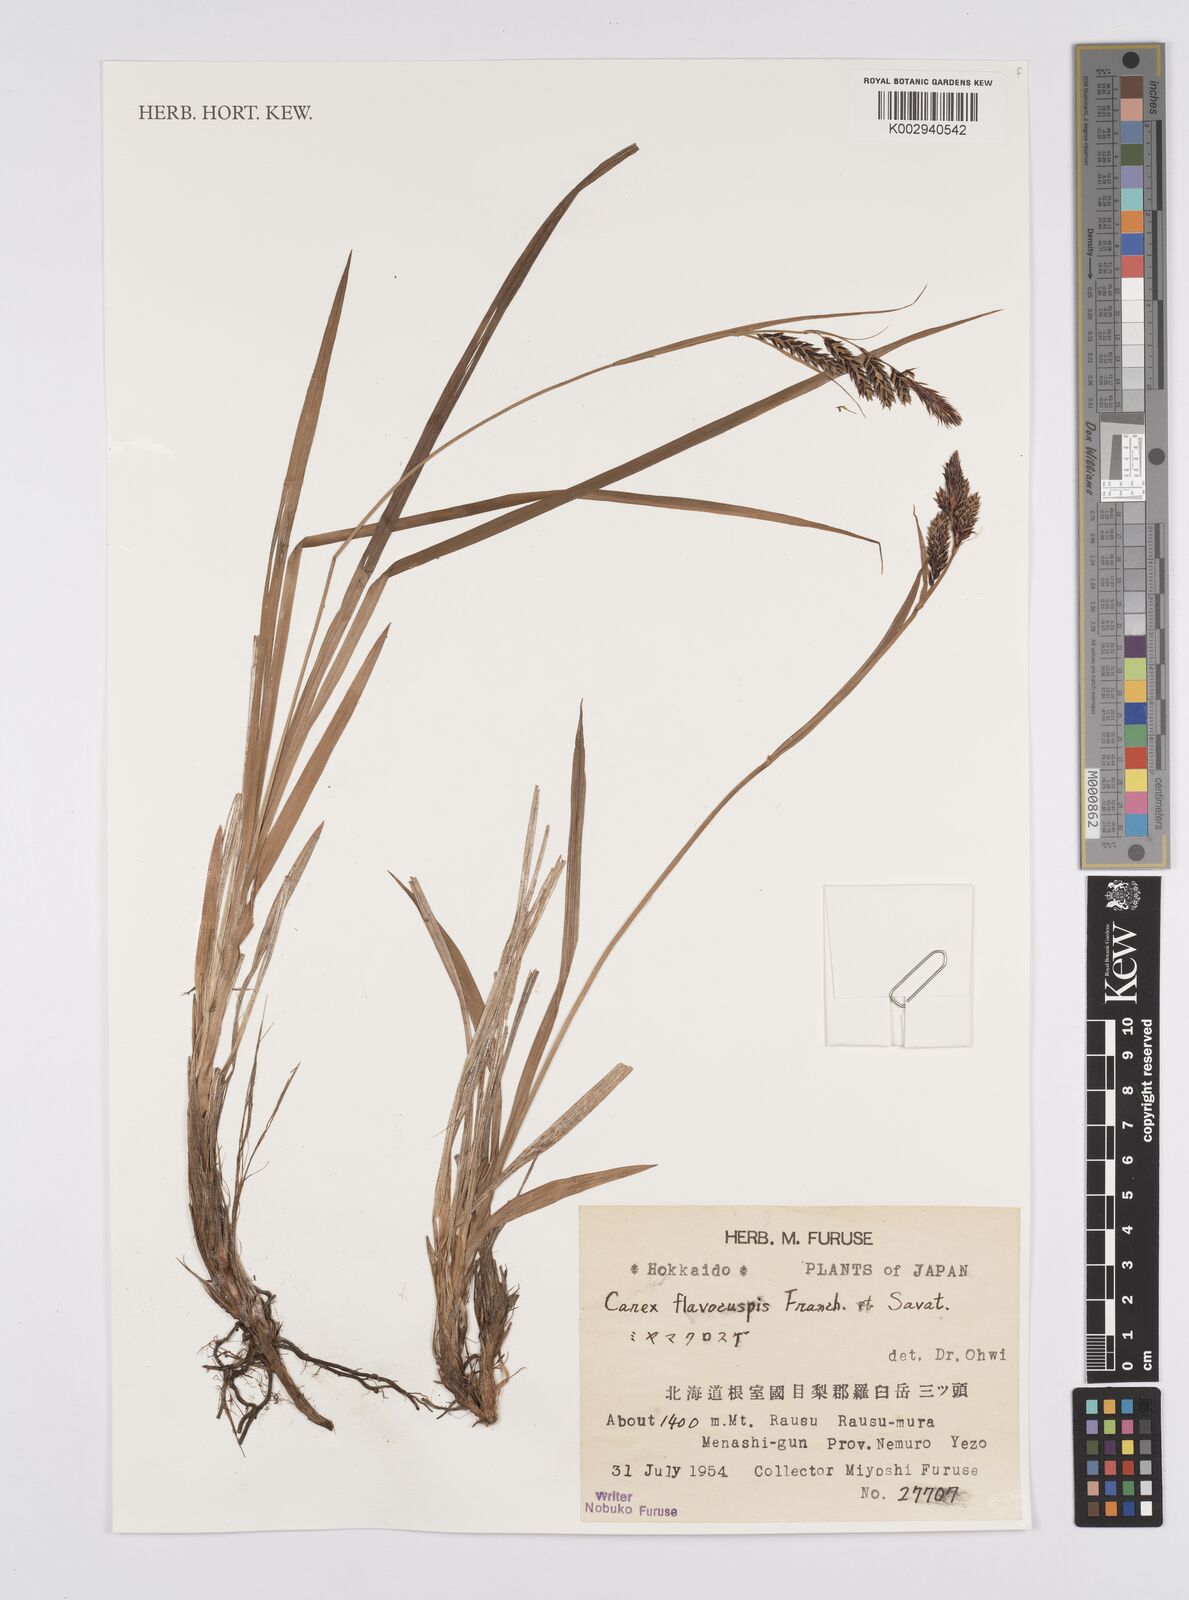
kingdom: Plantae
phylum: Tracheophyta
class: Liliopsida
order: Poales
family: Cyperaceae
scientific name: Cyperaceae
